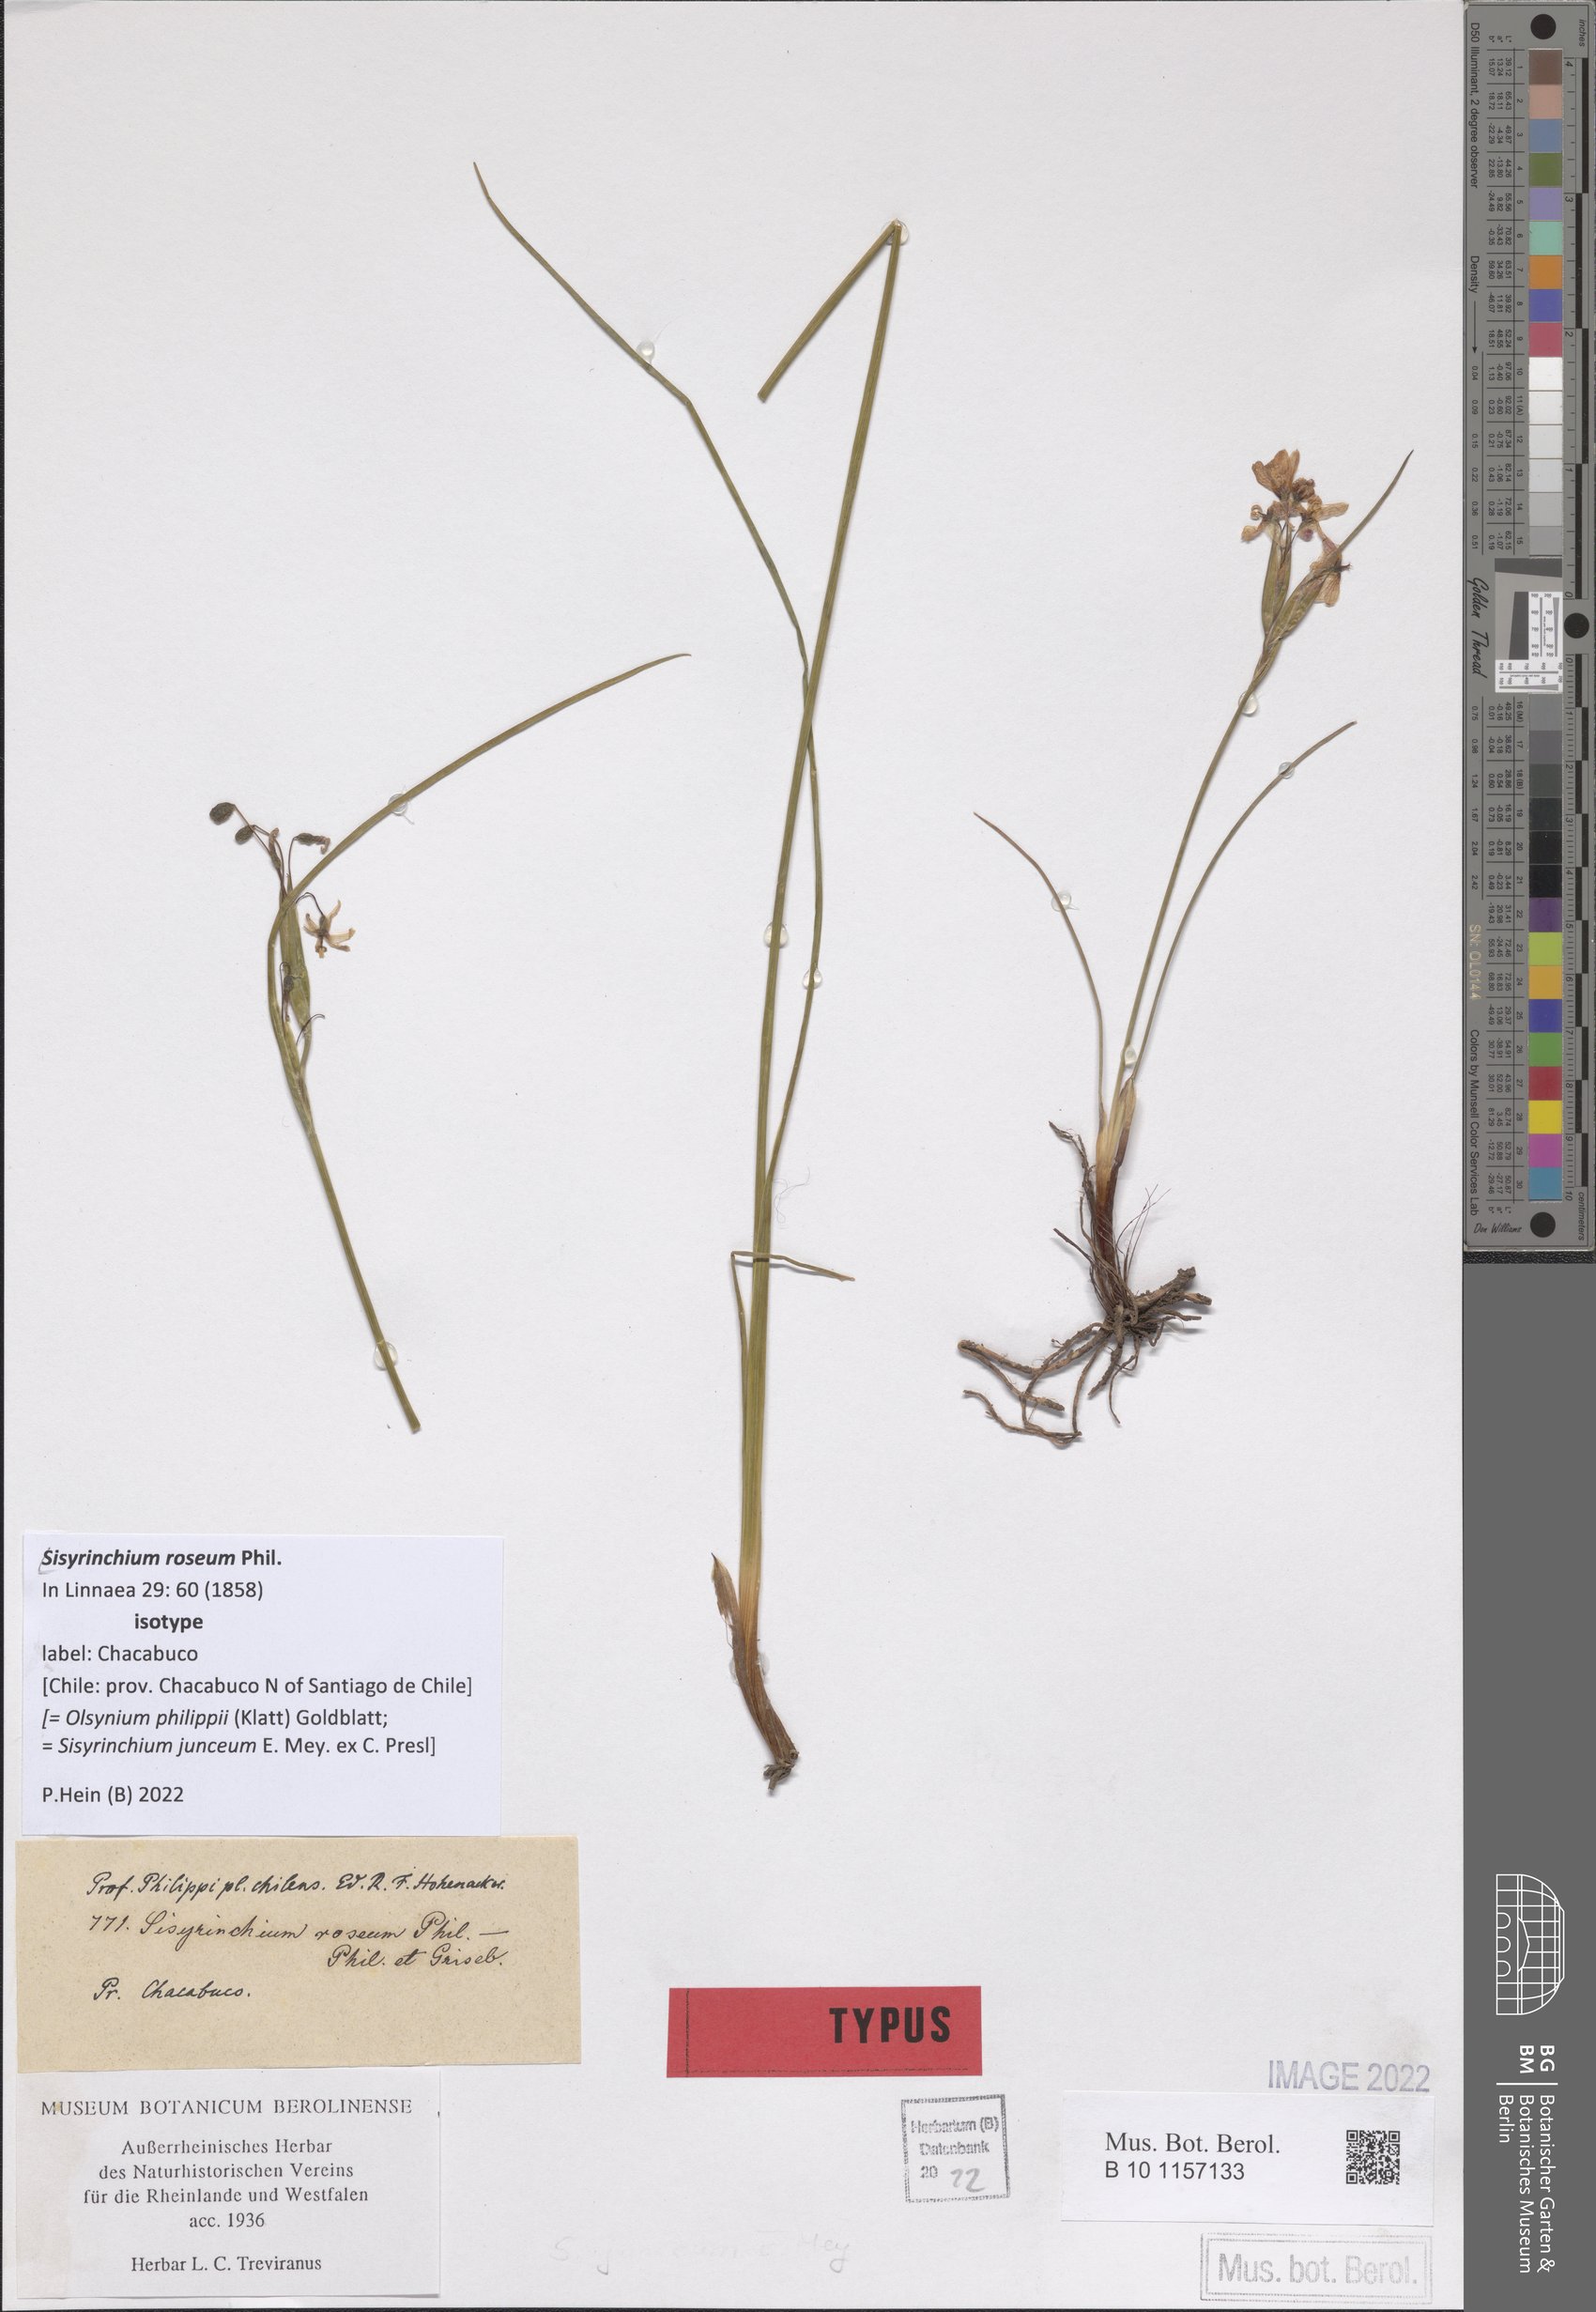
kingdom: Plantae
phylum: Tracheophyta
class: Liliopsida
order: Asparagales
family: Iridaceae
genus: Olsynium
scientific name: Olsynium philippii
